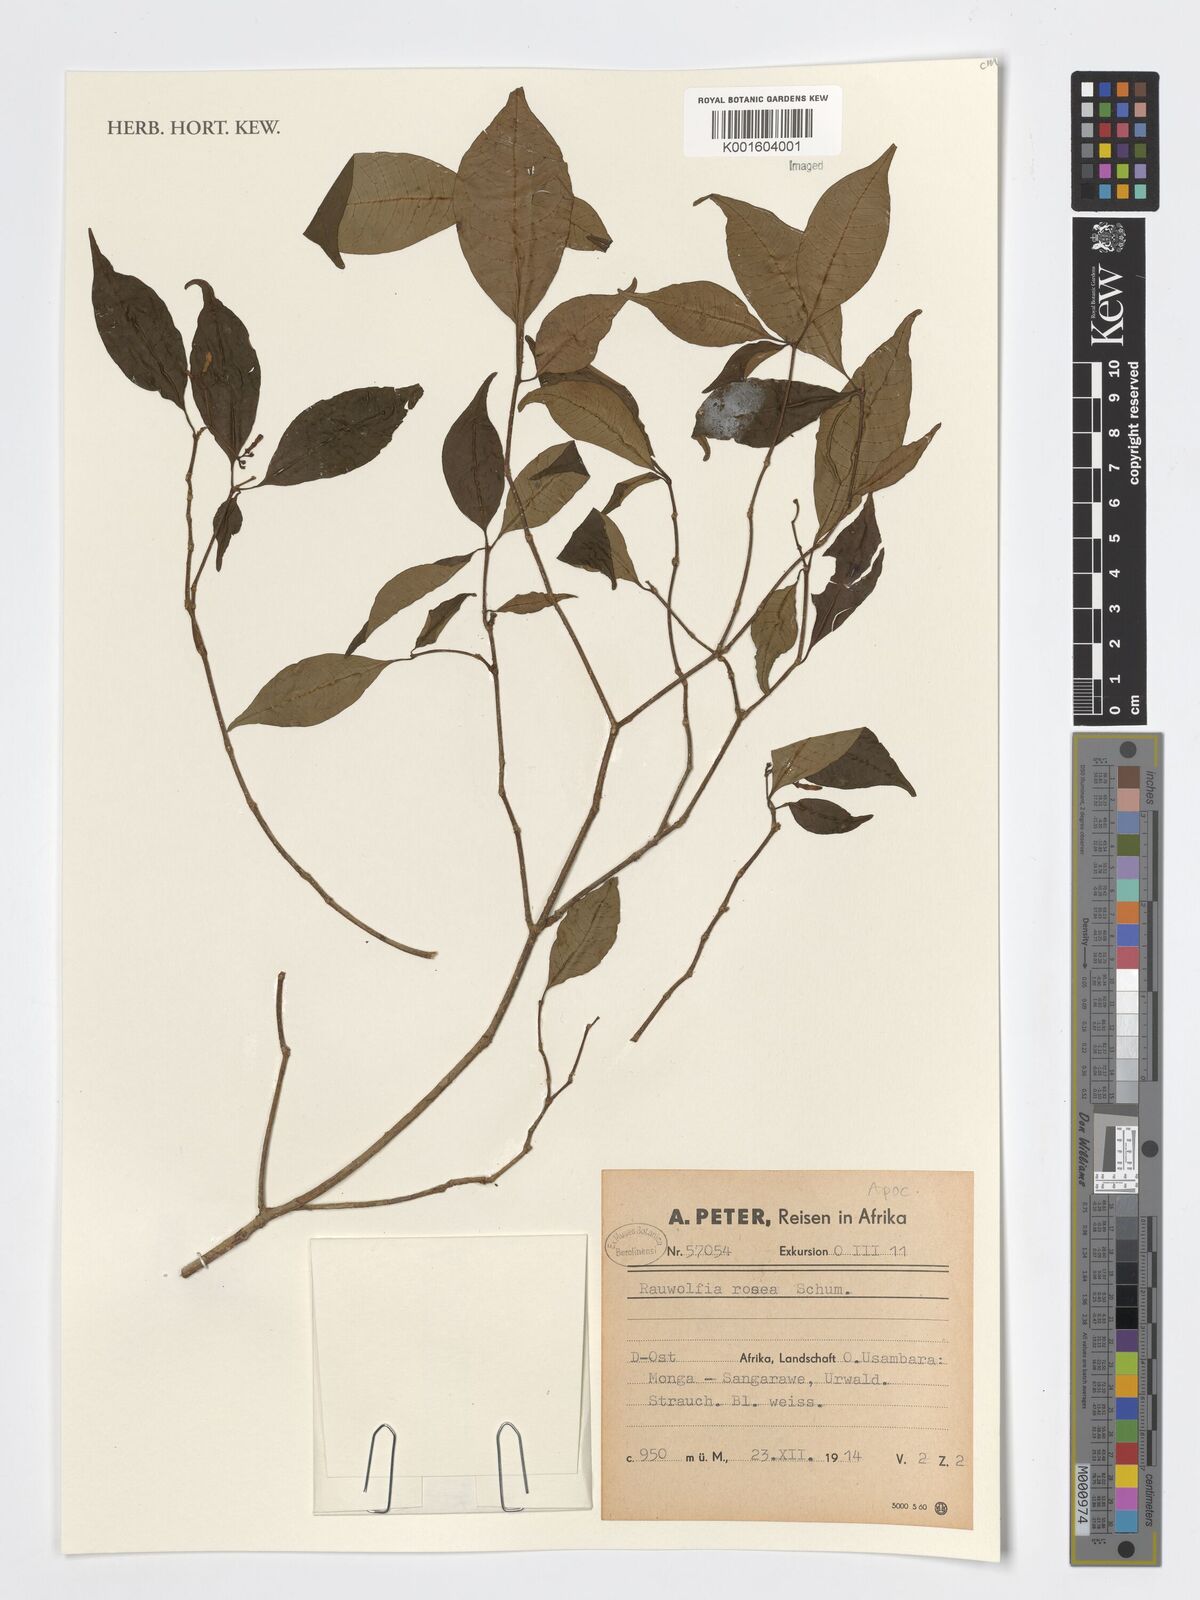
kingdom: Plantae
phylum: Tracheophyta
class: Magnoliopsida
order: Gentianales
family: Apocynaceae
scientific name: Apocynaceae
